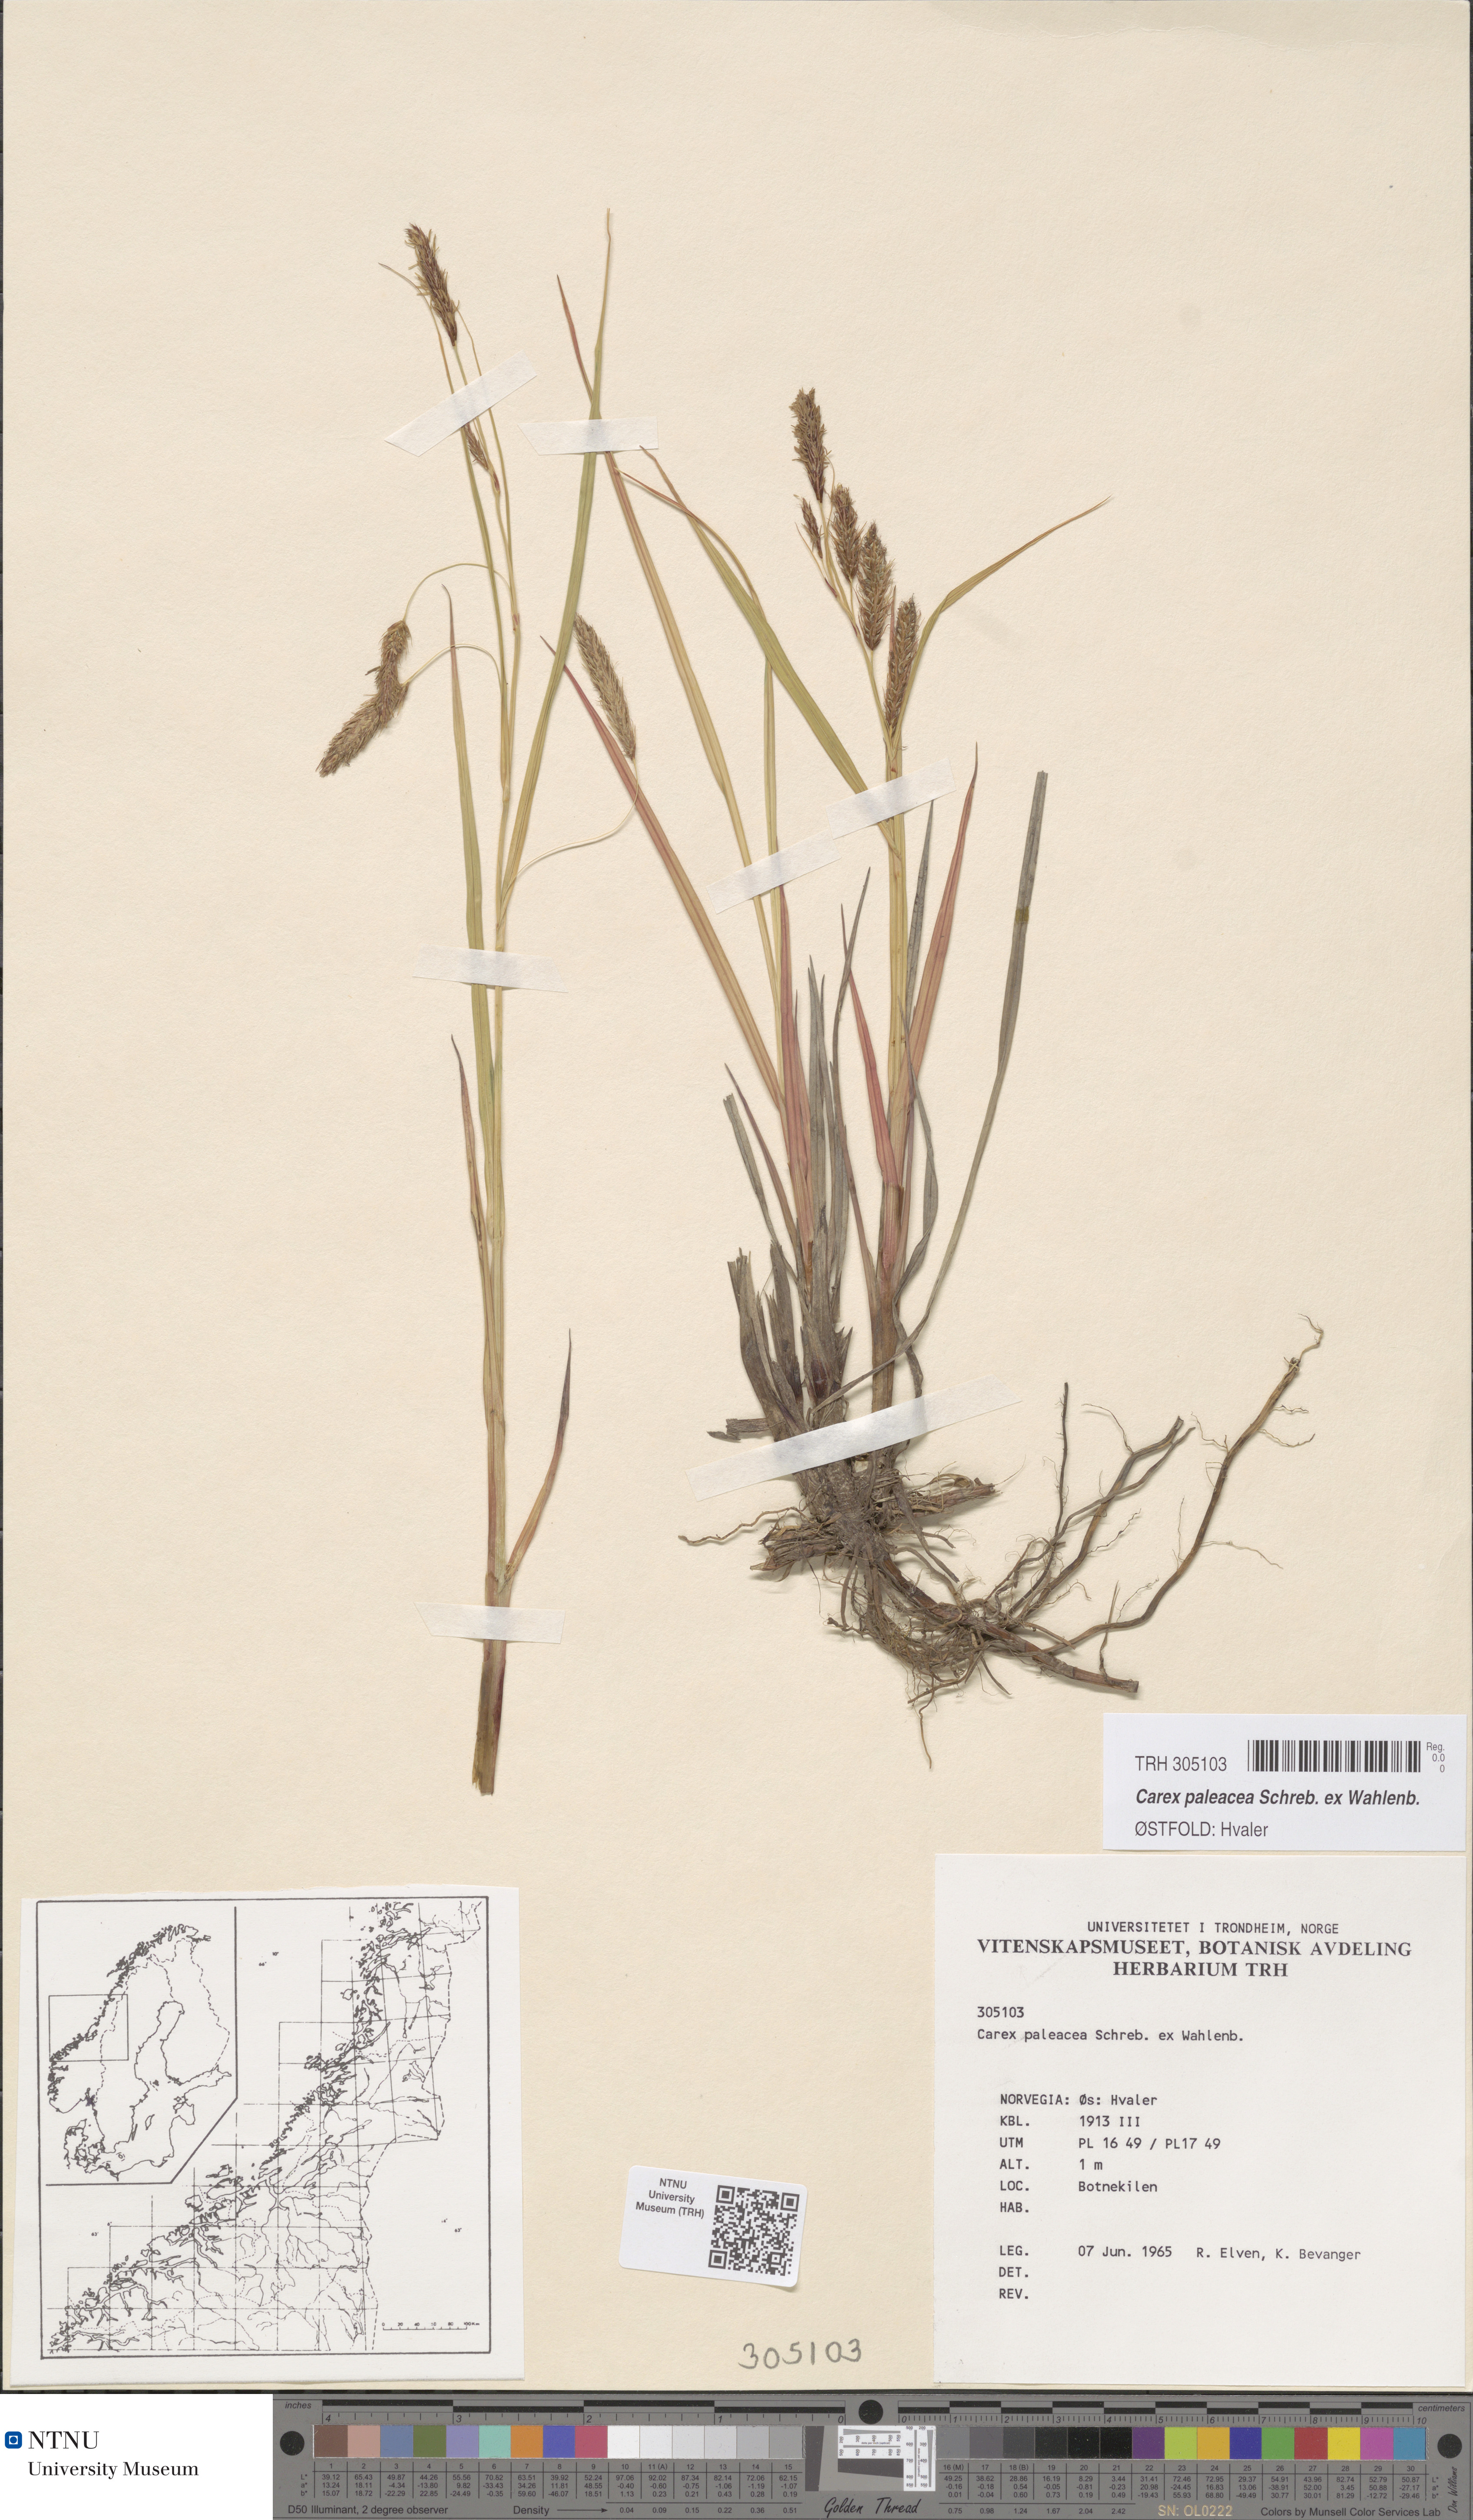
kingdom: Plantae
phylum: Tracheophyta
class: Liliopsida
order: Poales
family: Cyperaceae
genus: Carex
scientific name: Carex paleacea
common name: Chaffy sedge
